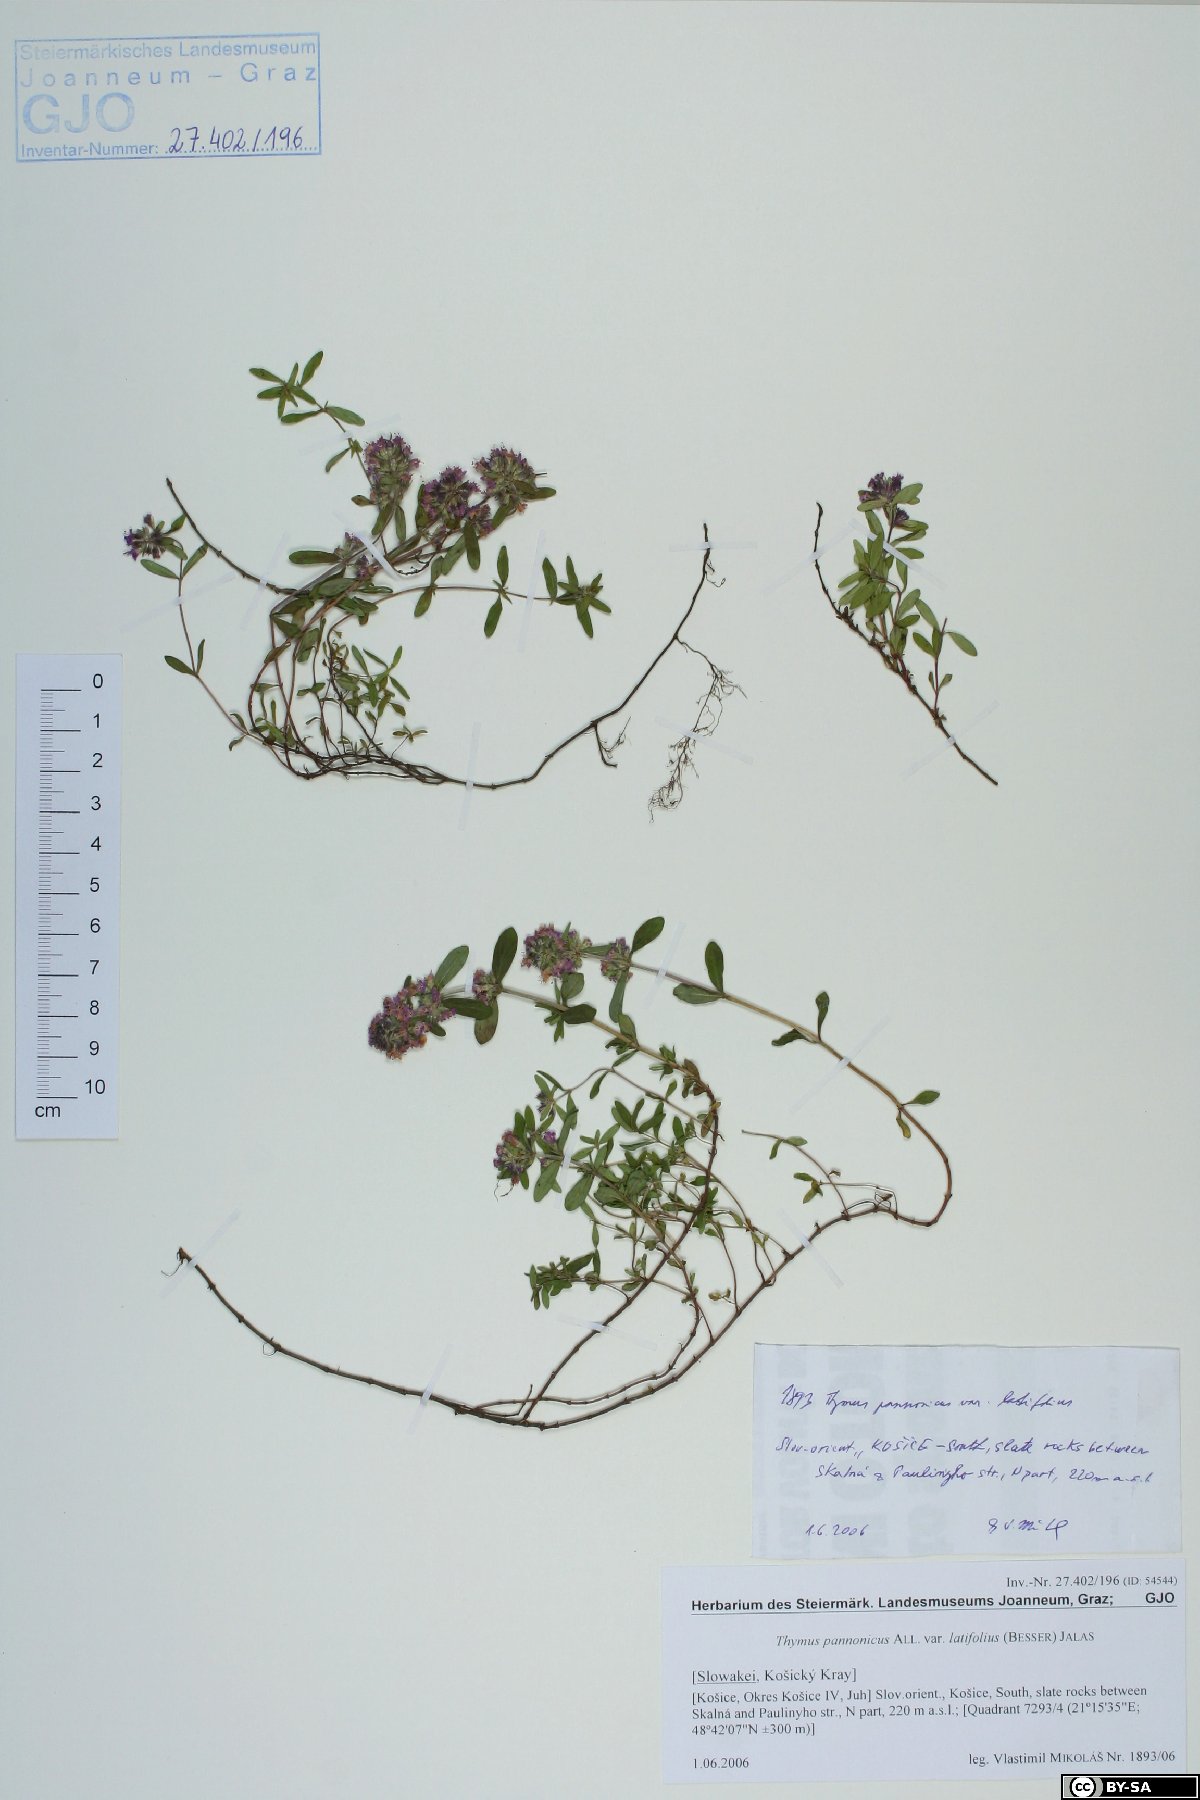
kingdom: Plantae
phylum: Tracheophyta
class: Magnoliopsida
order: Lamiales
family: Lamiaceae
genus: Thymus
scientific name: Thymus pannonicus
